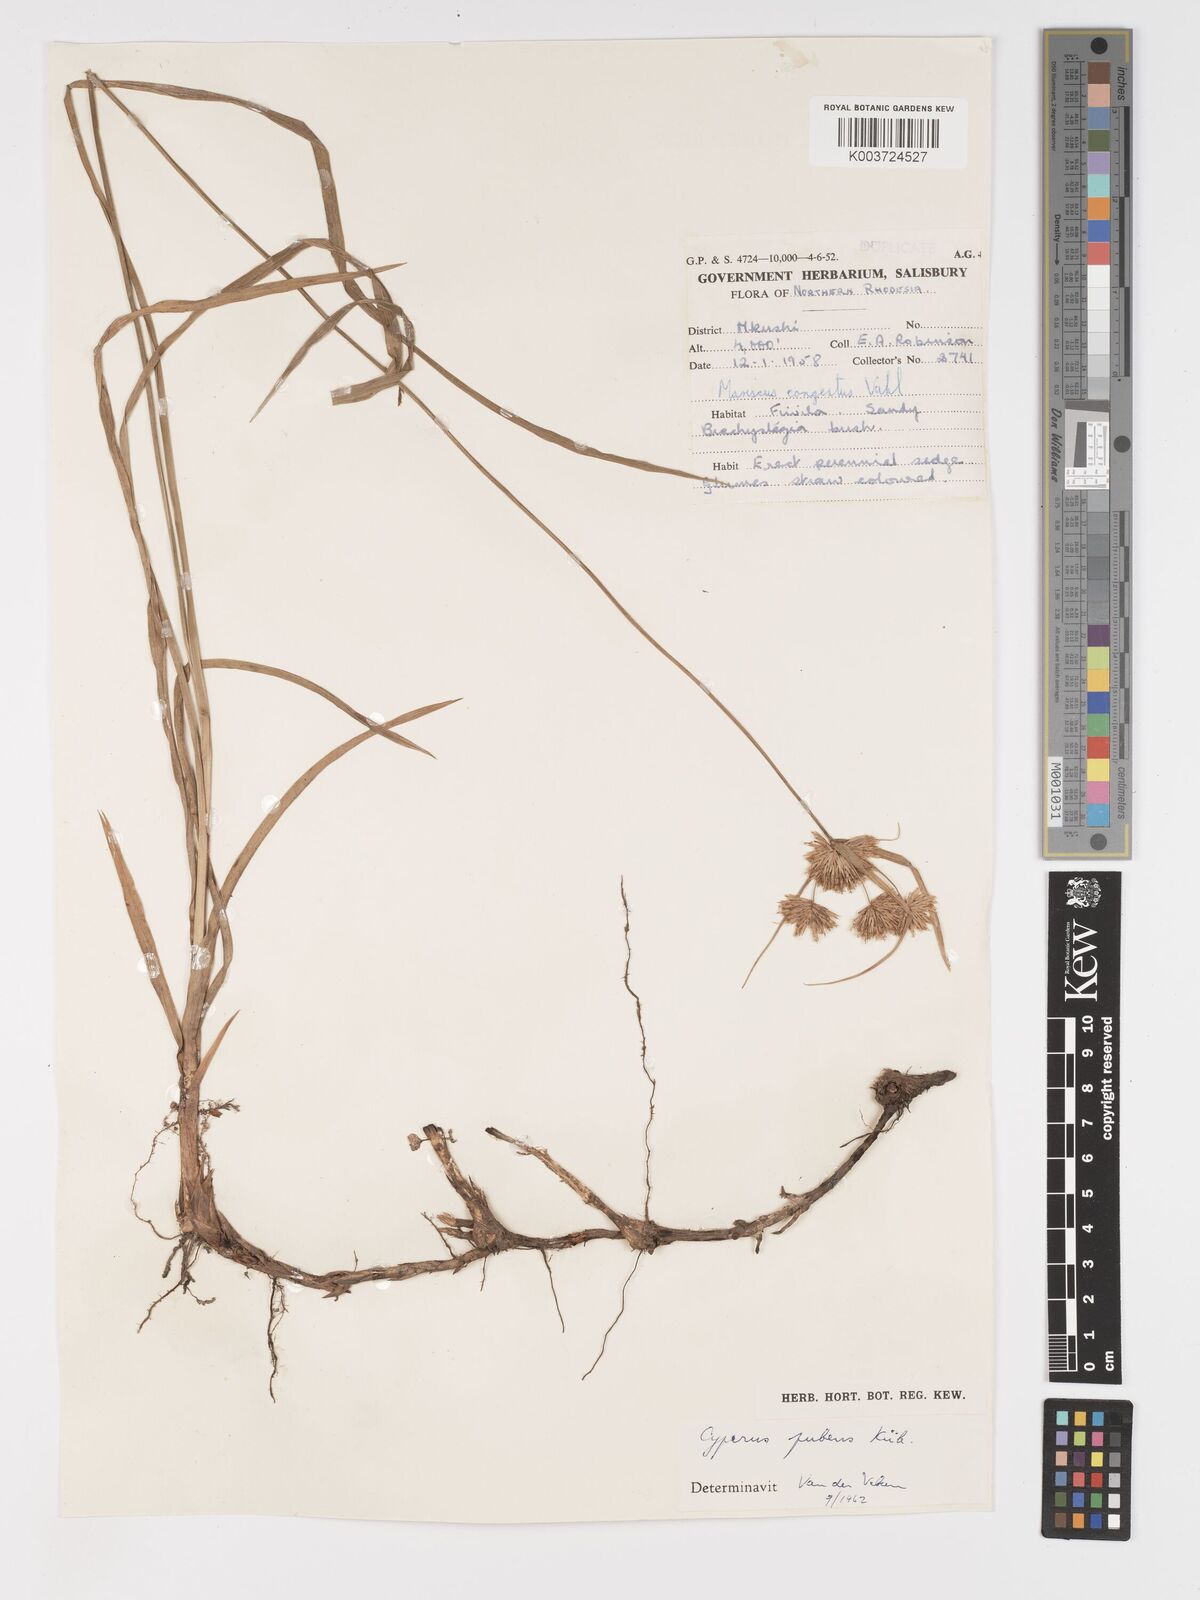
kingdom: Plantae
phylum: Tracheophyta
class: Liliopsida
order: Poales
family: Cyperaceae
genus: Cyperus
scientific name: Cyperus pubens
